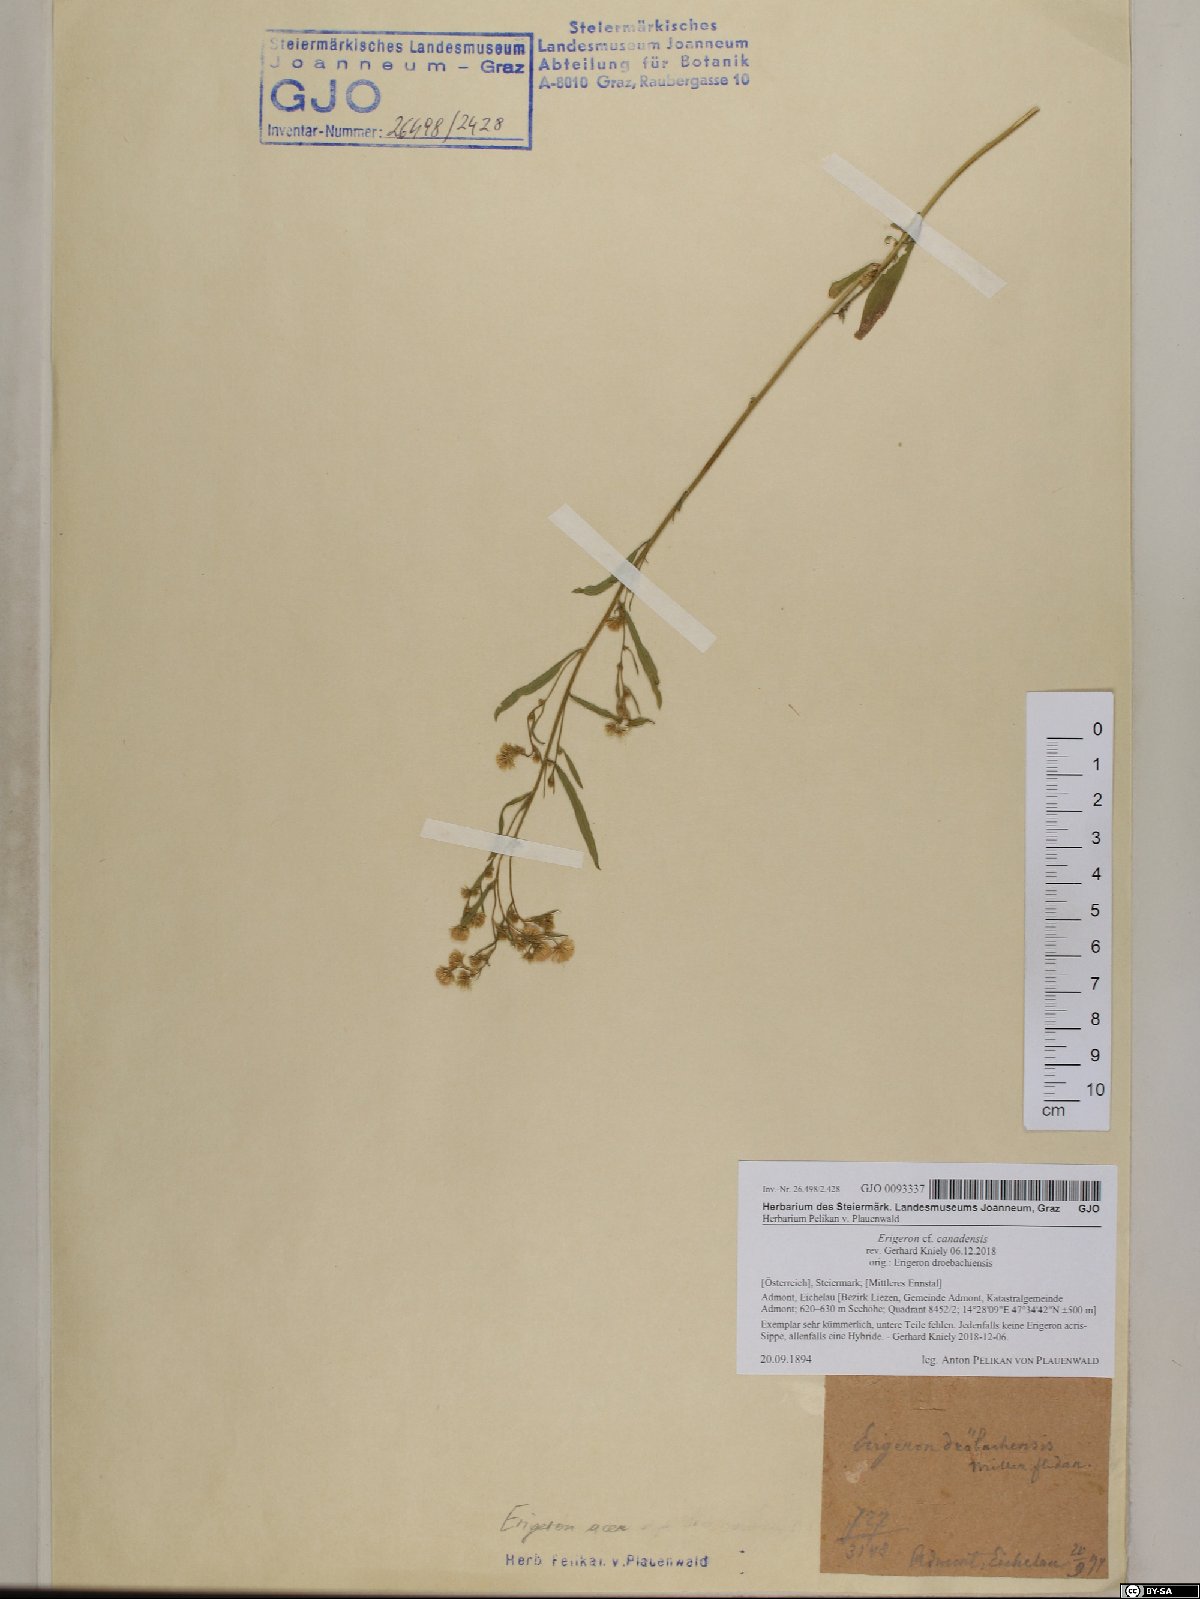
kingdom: Plantae
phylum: Tracheophyta
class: Magnoliopsida
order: Asterales
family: Asteraceae
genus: Erigeron
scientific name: Erigeron canadensis
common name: Canadian fleabane
